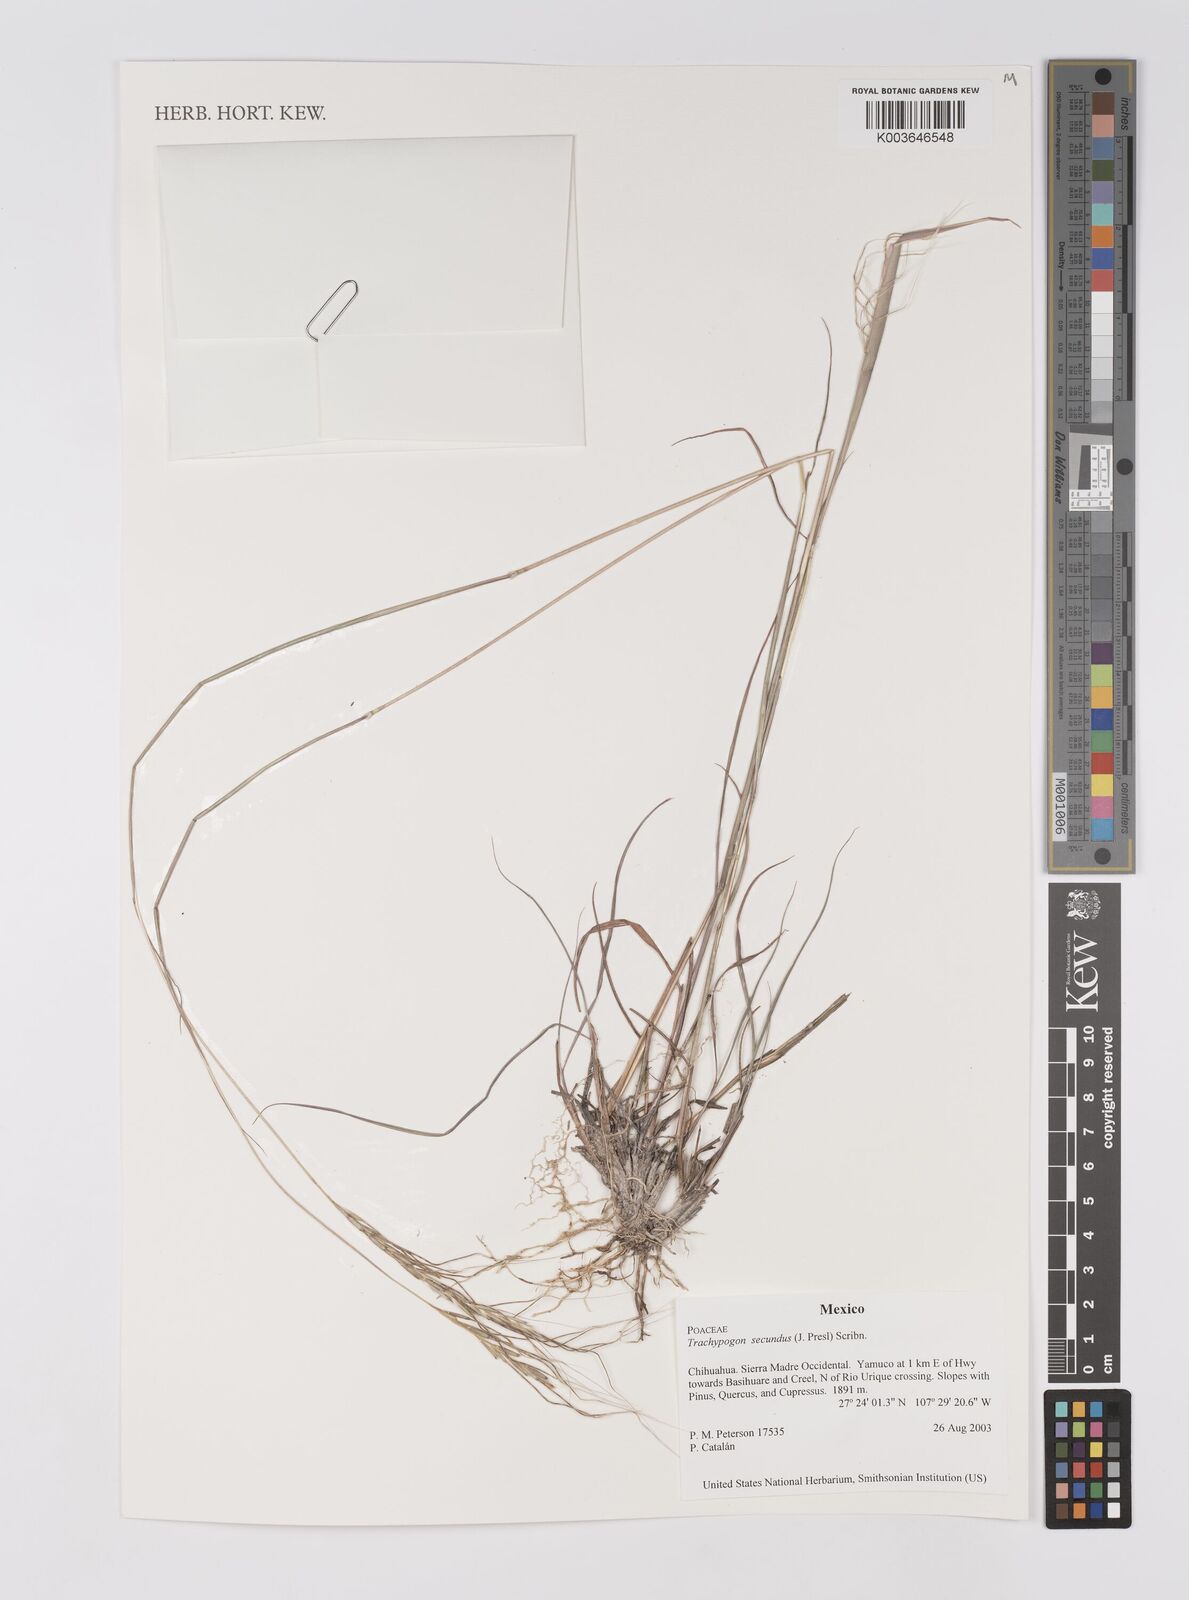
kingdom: Plantae
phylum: Tracheophyta
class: Liliopsida
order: Poales
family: Poaceae
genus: Trachypogon
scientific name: Trachypogon spicatus
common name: Crinkle-awn
